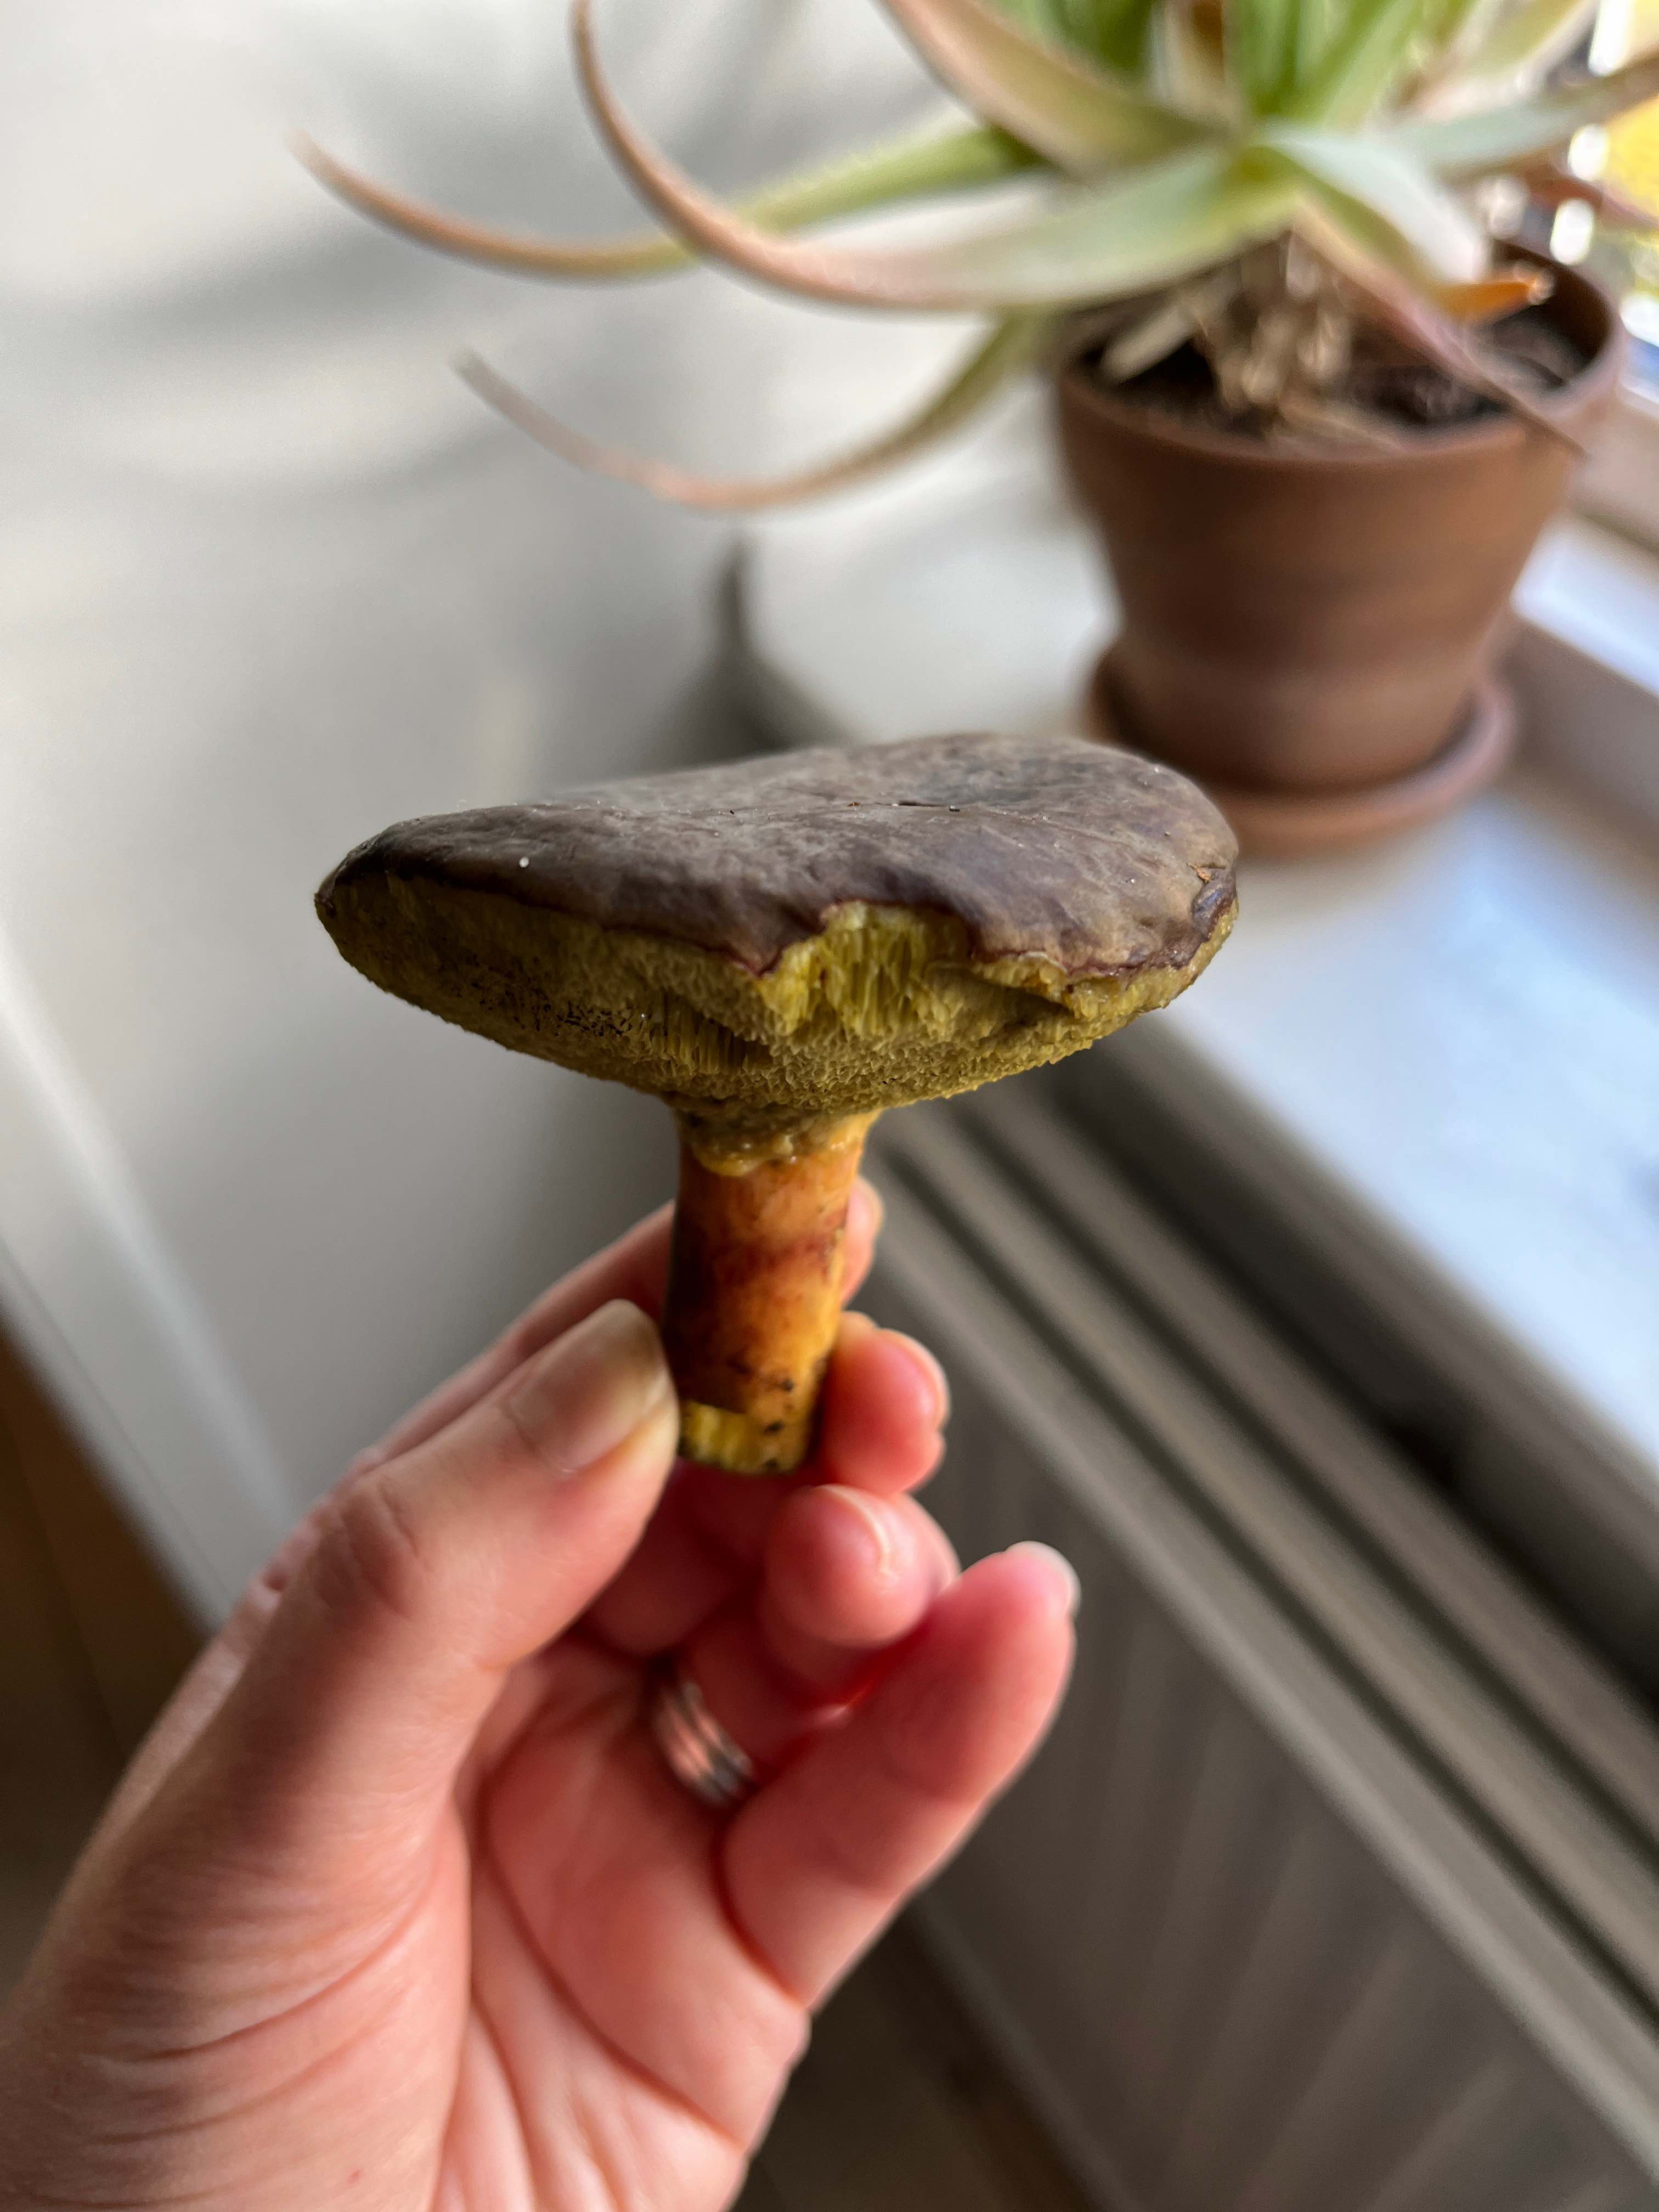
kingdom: Fungi
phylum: Basidiomycota
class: Agaricomycetes
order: Boletales
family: Boletaceae
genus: Xerocomellus
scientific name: Xerocomellus
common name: dværgrørhat
